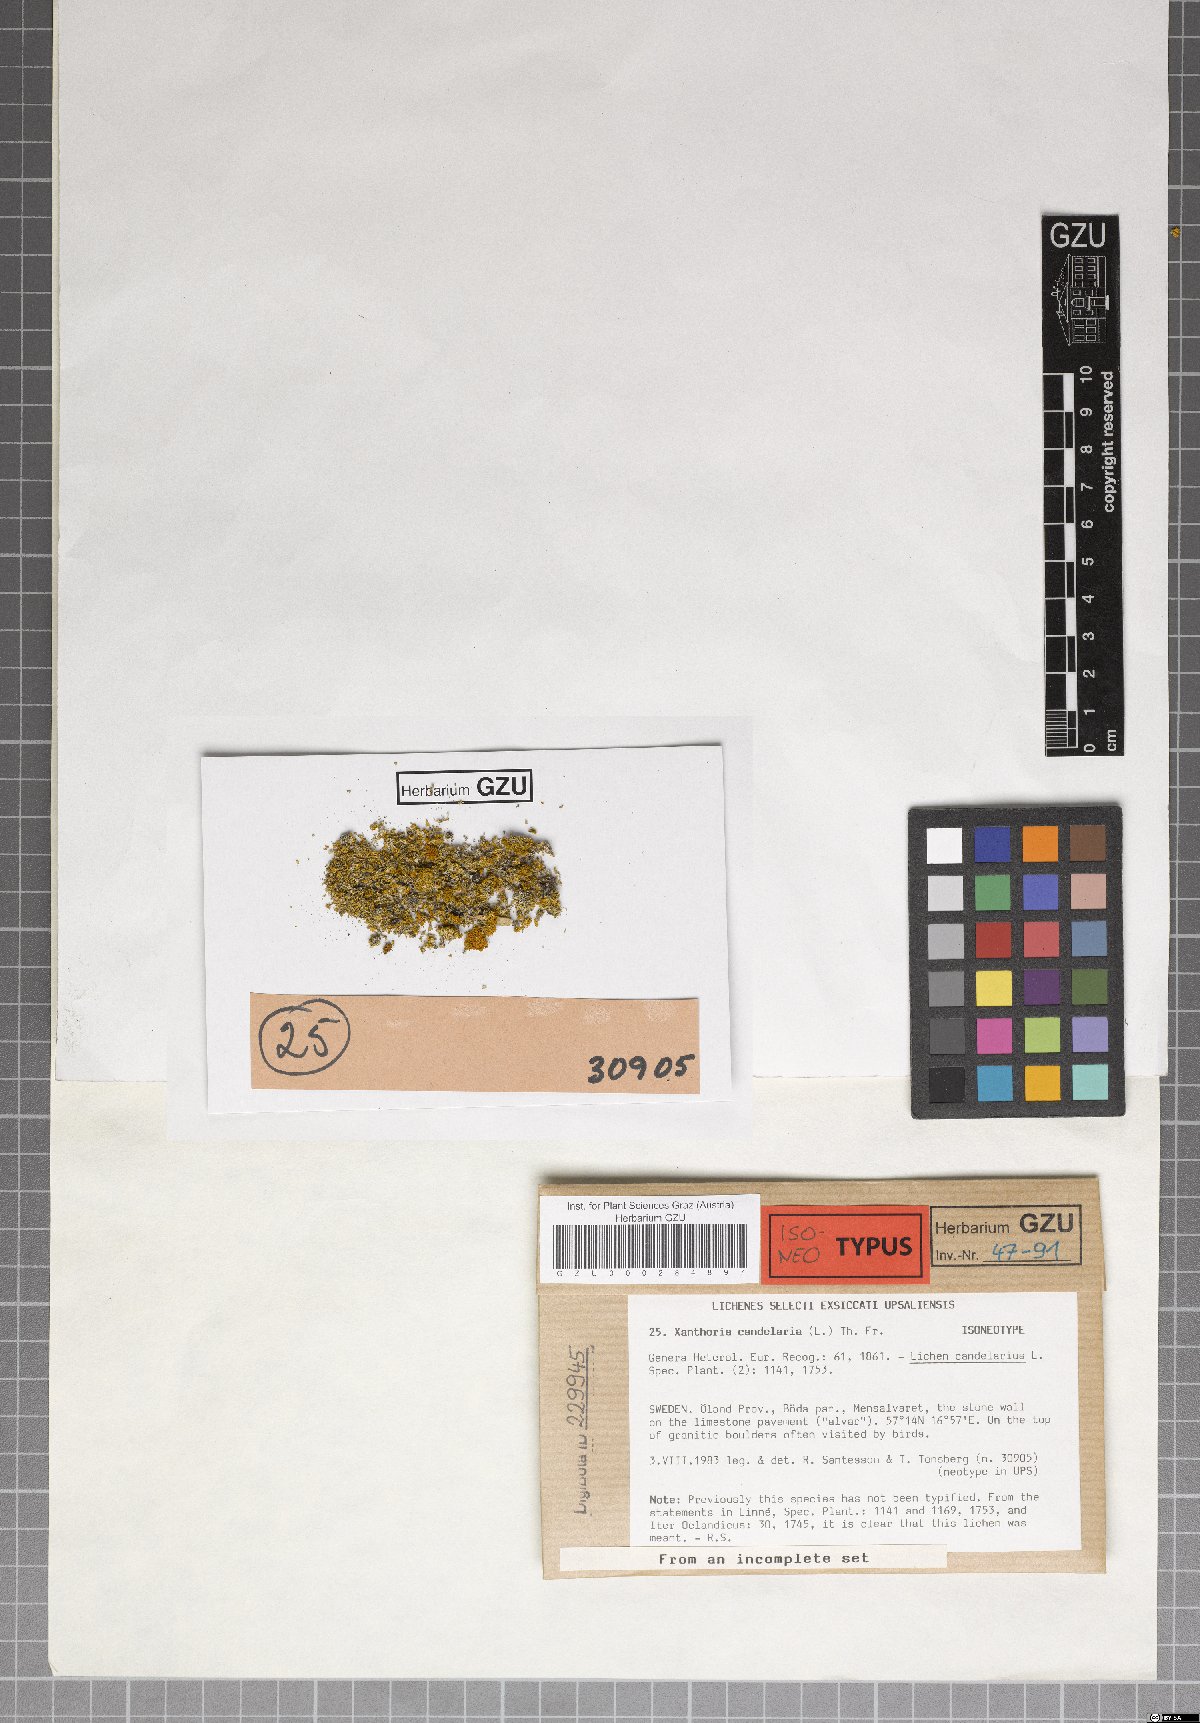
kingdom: Fungi
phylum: Ascomycota
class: Lecanoromycetes
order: Teloschistales
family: Teloschistaceae
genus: Polycauliona
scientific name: Polycauliona candelaria
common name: Shrubby sunburst lichen
